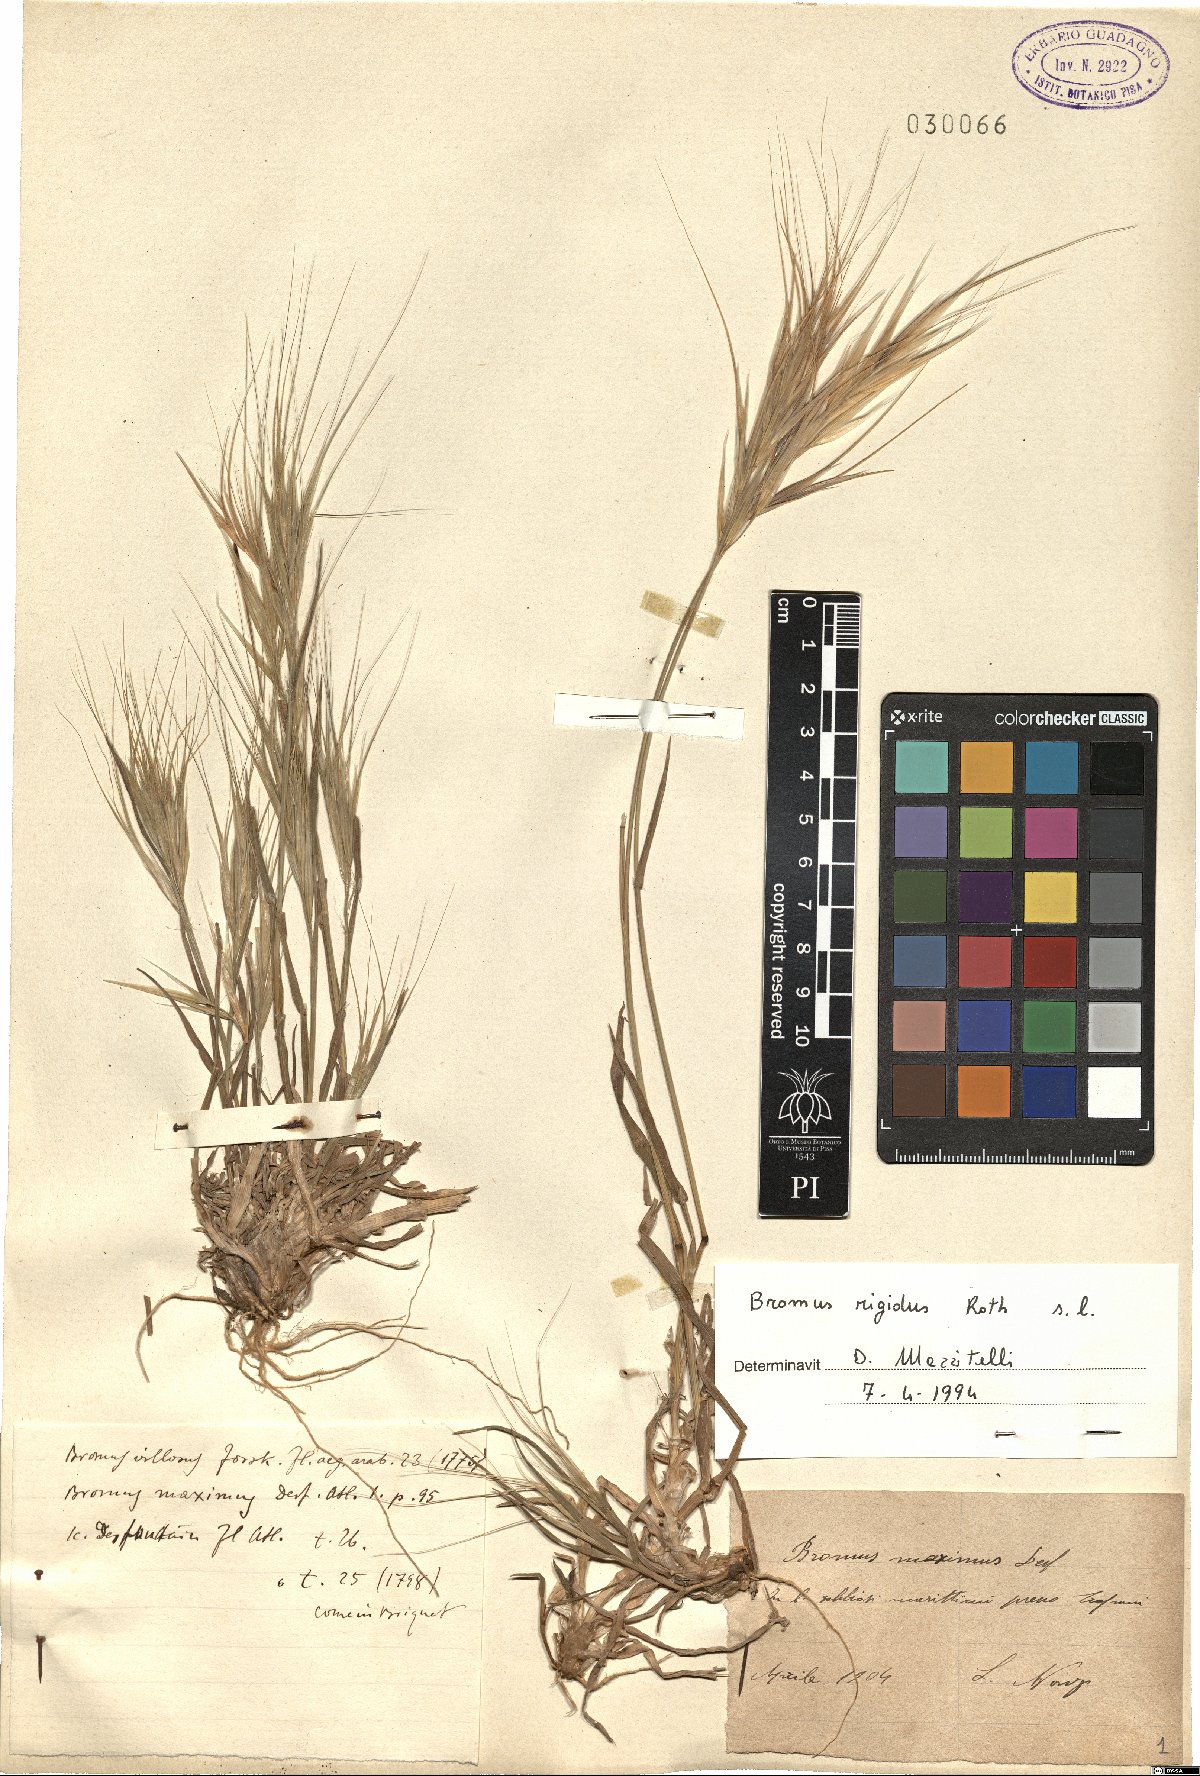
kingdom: Plantae
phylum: Tracheophyta
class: Liliopsida
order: Poales
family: Poaceae
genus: Bromus
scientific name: Bromus rigidus
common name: Ripgut brome
